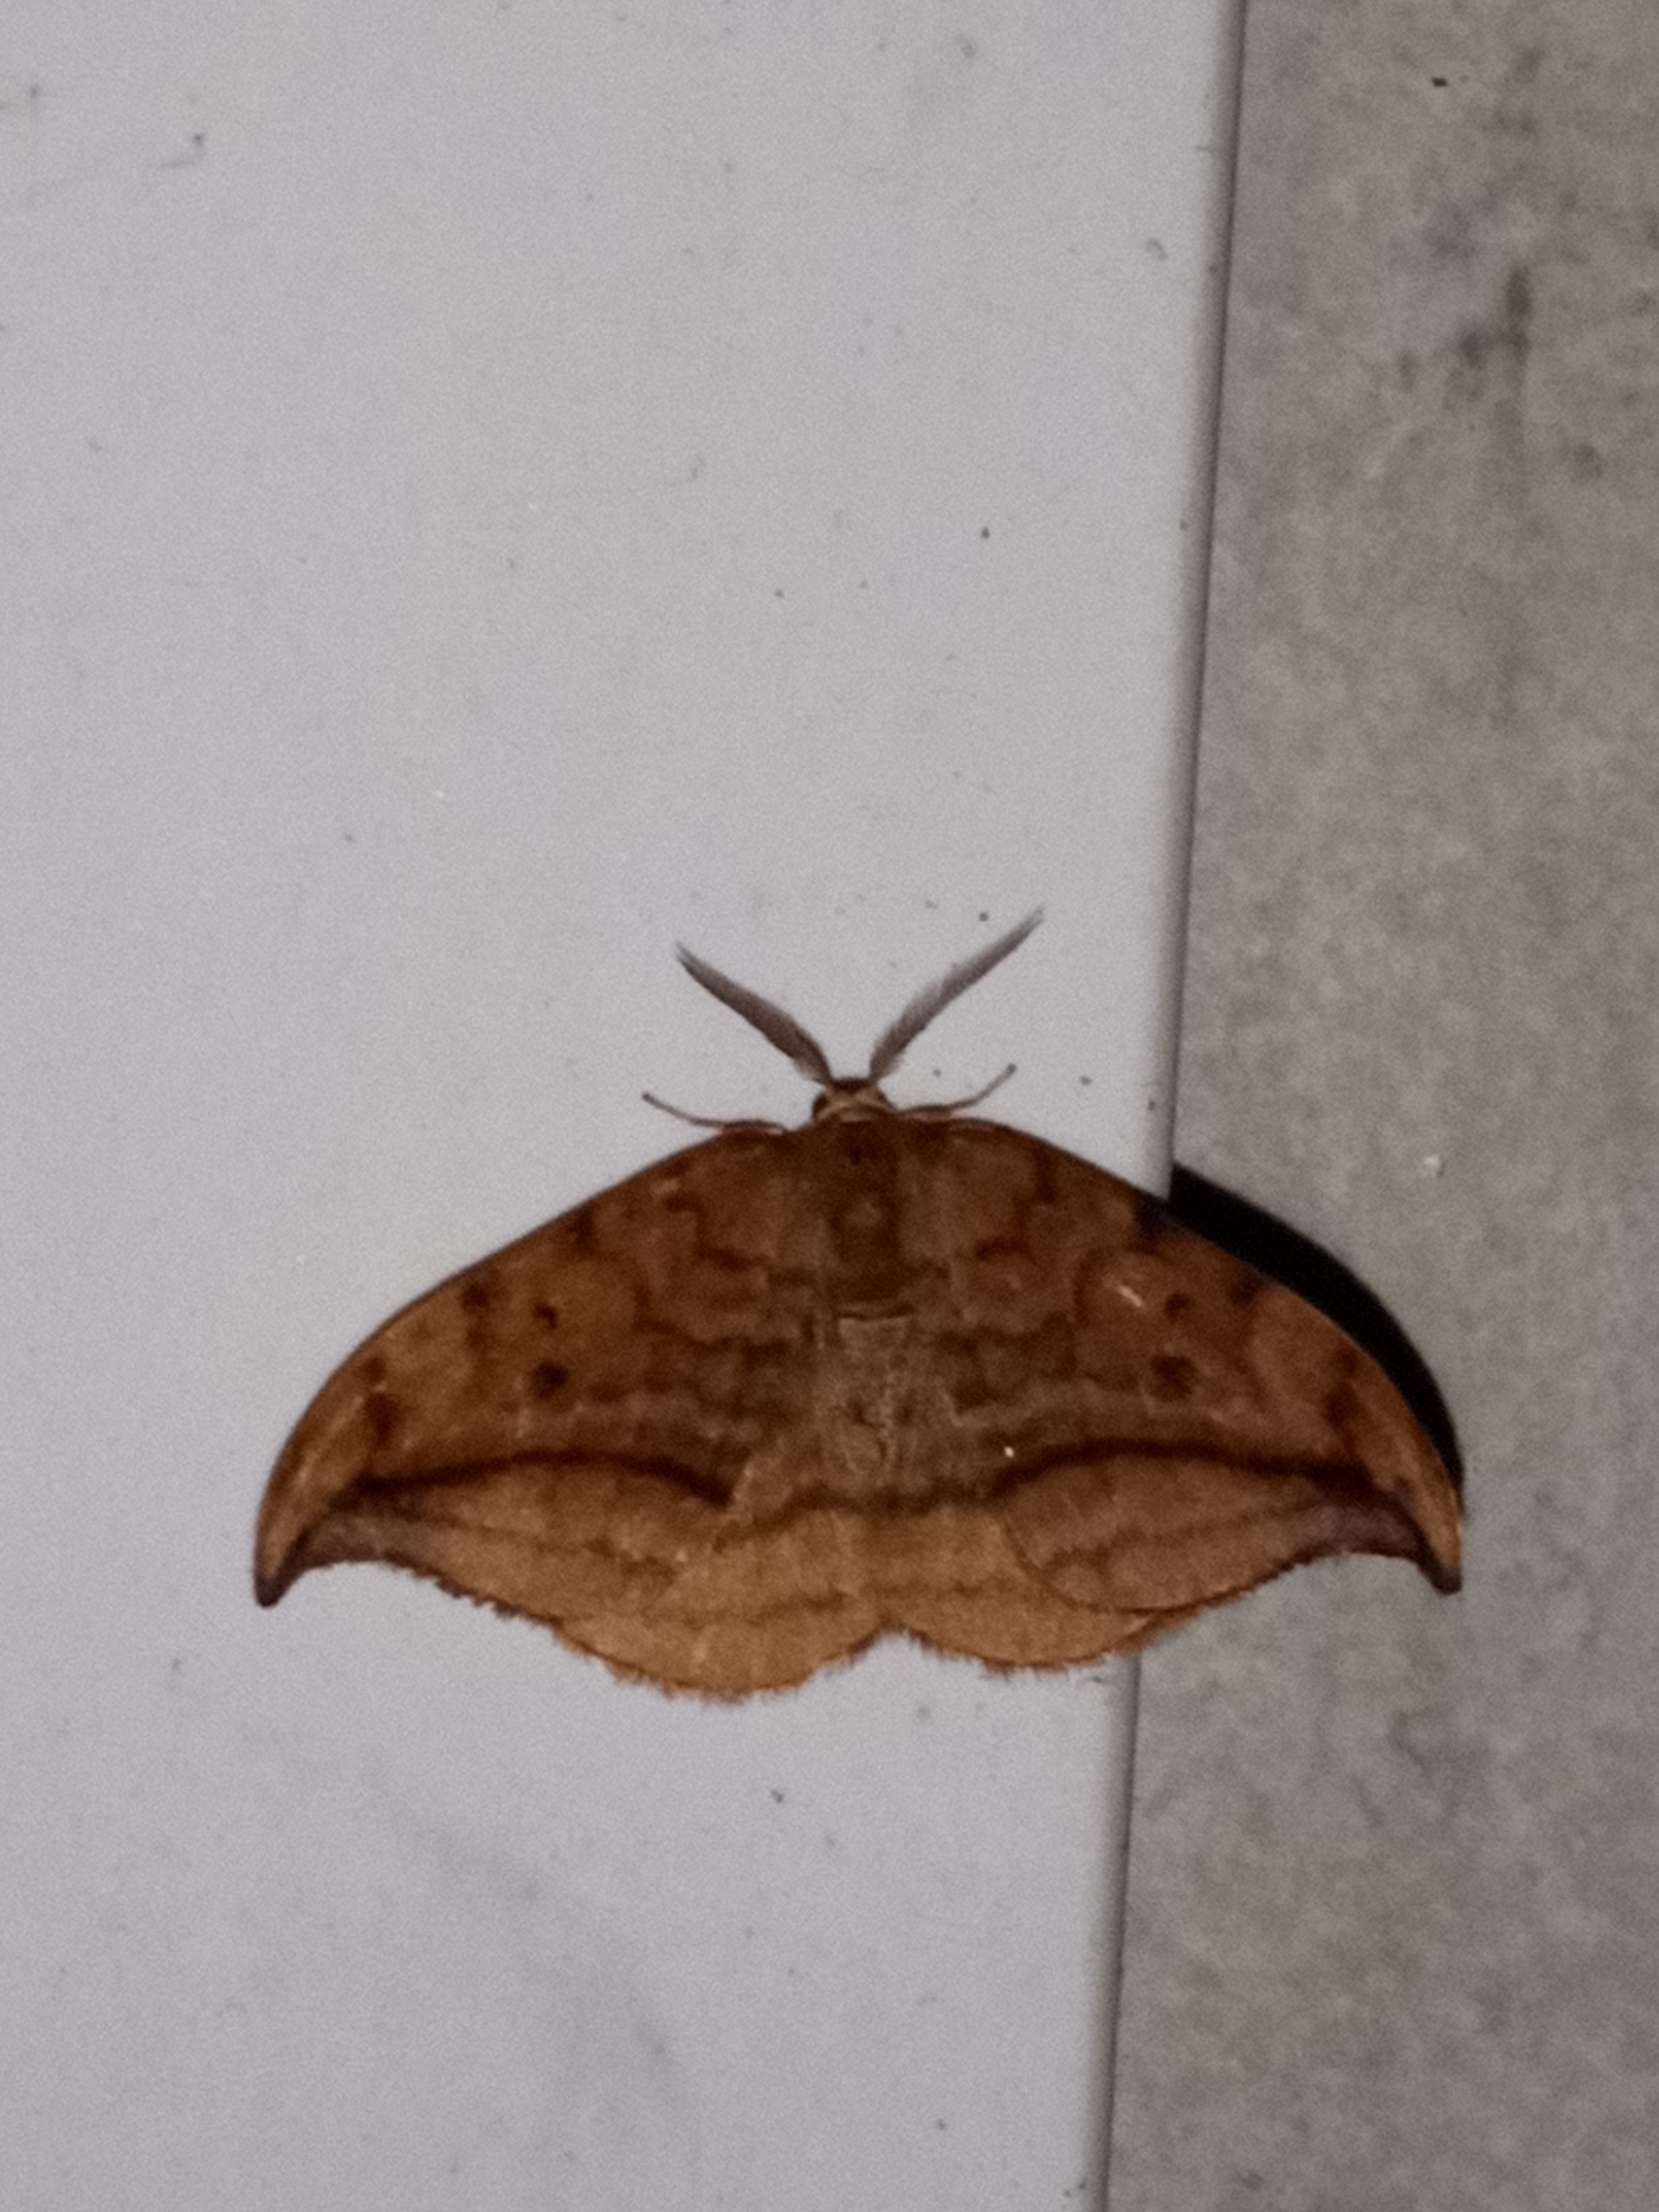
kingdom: Animalia
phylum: Arthropoda
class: Insecta
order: Lepidoptera
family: Drepanidae
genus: Drepana
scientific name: Drepana curvatula
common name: Brun seglvinge
